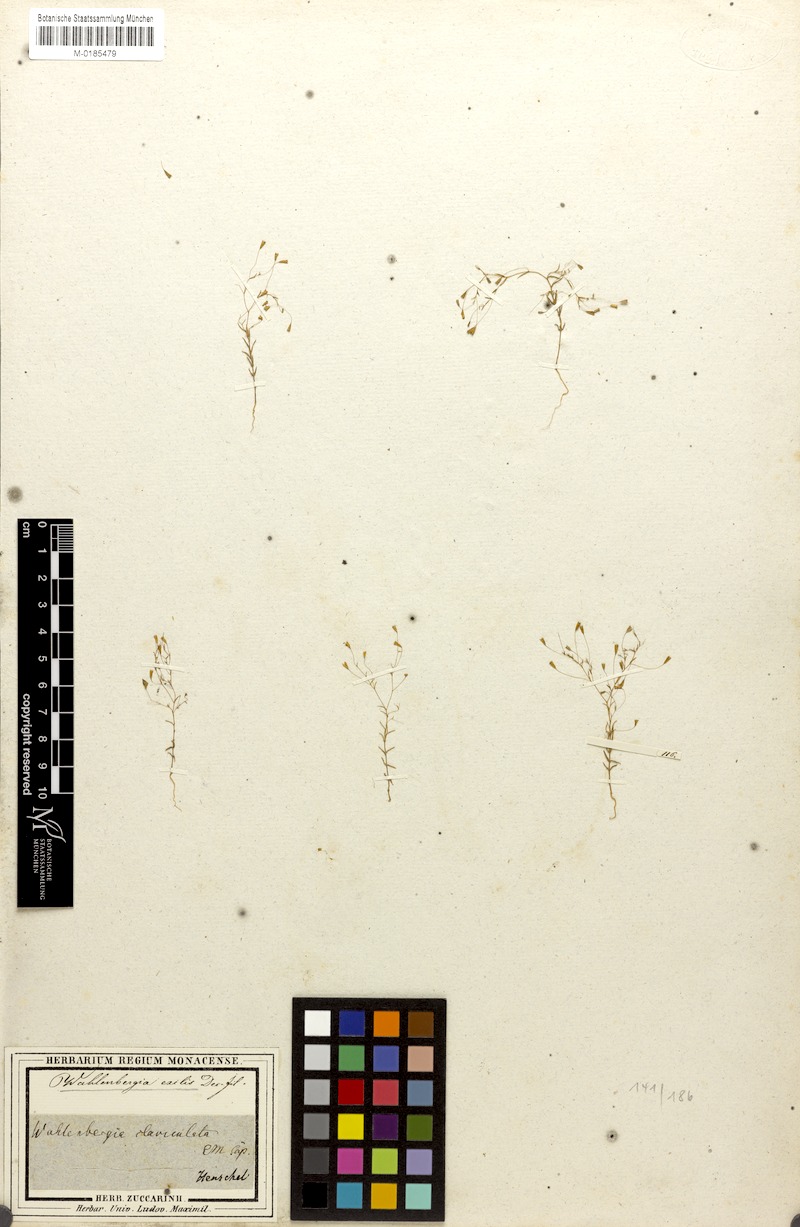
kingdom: Plantae
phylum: Tracheophyta
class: Magnoliopsida
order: Asterales
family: Campanulaceae
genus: Wahlenbergia
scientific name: Wahlenbergia exilis
